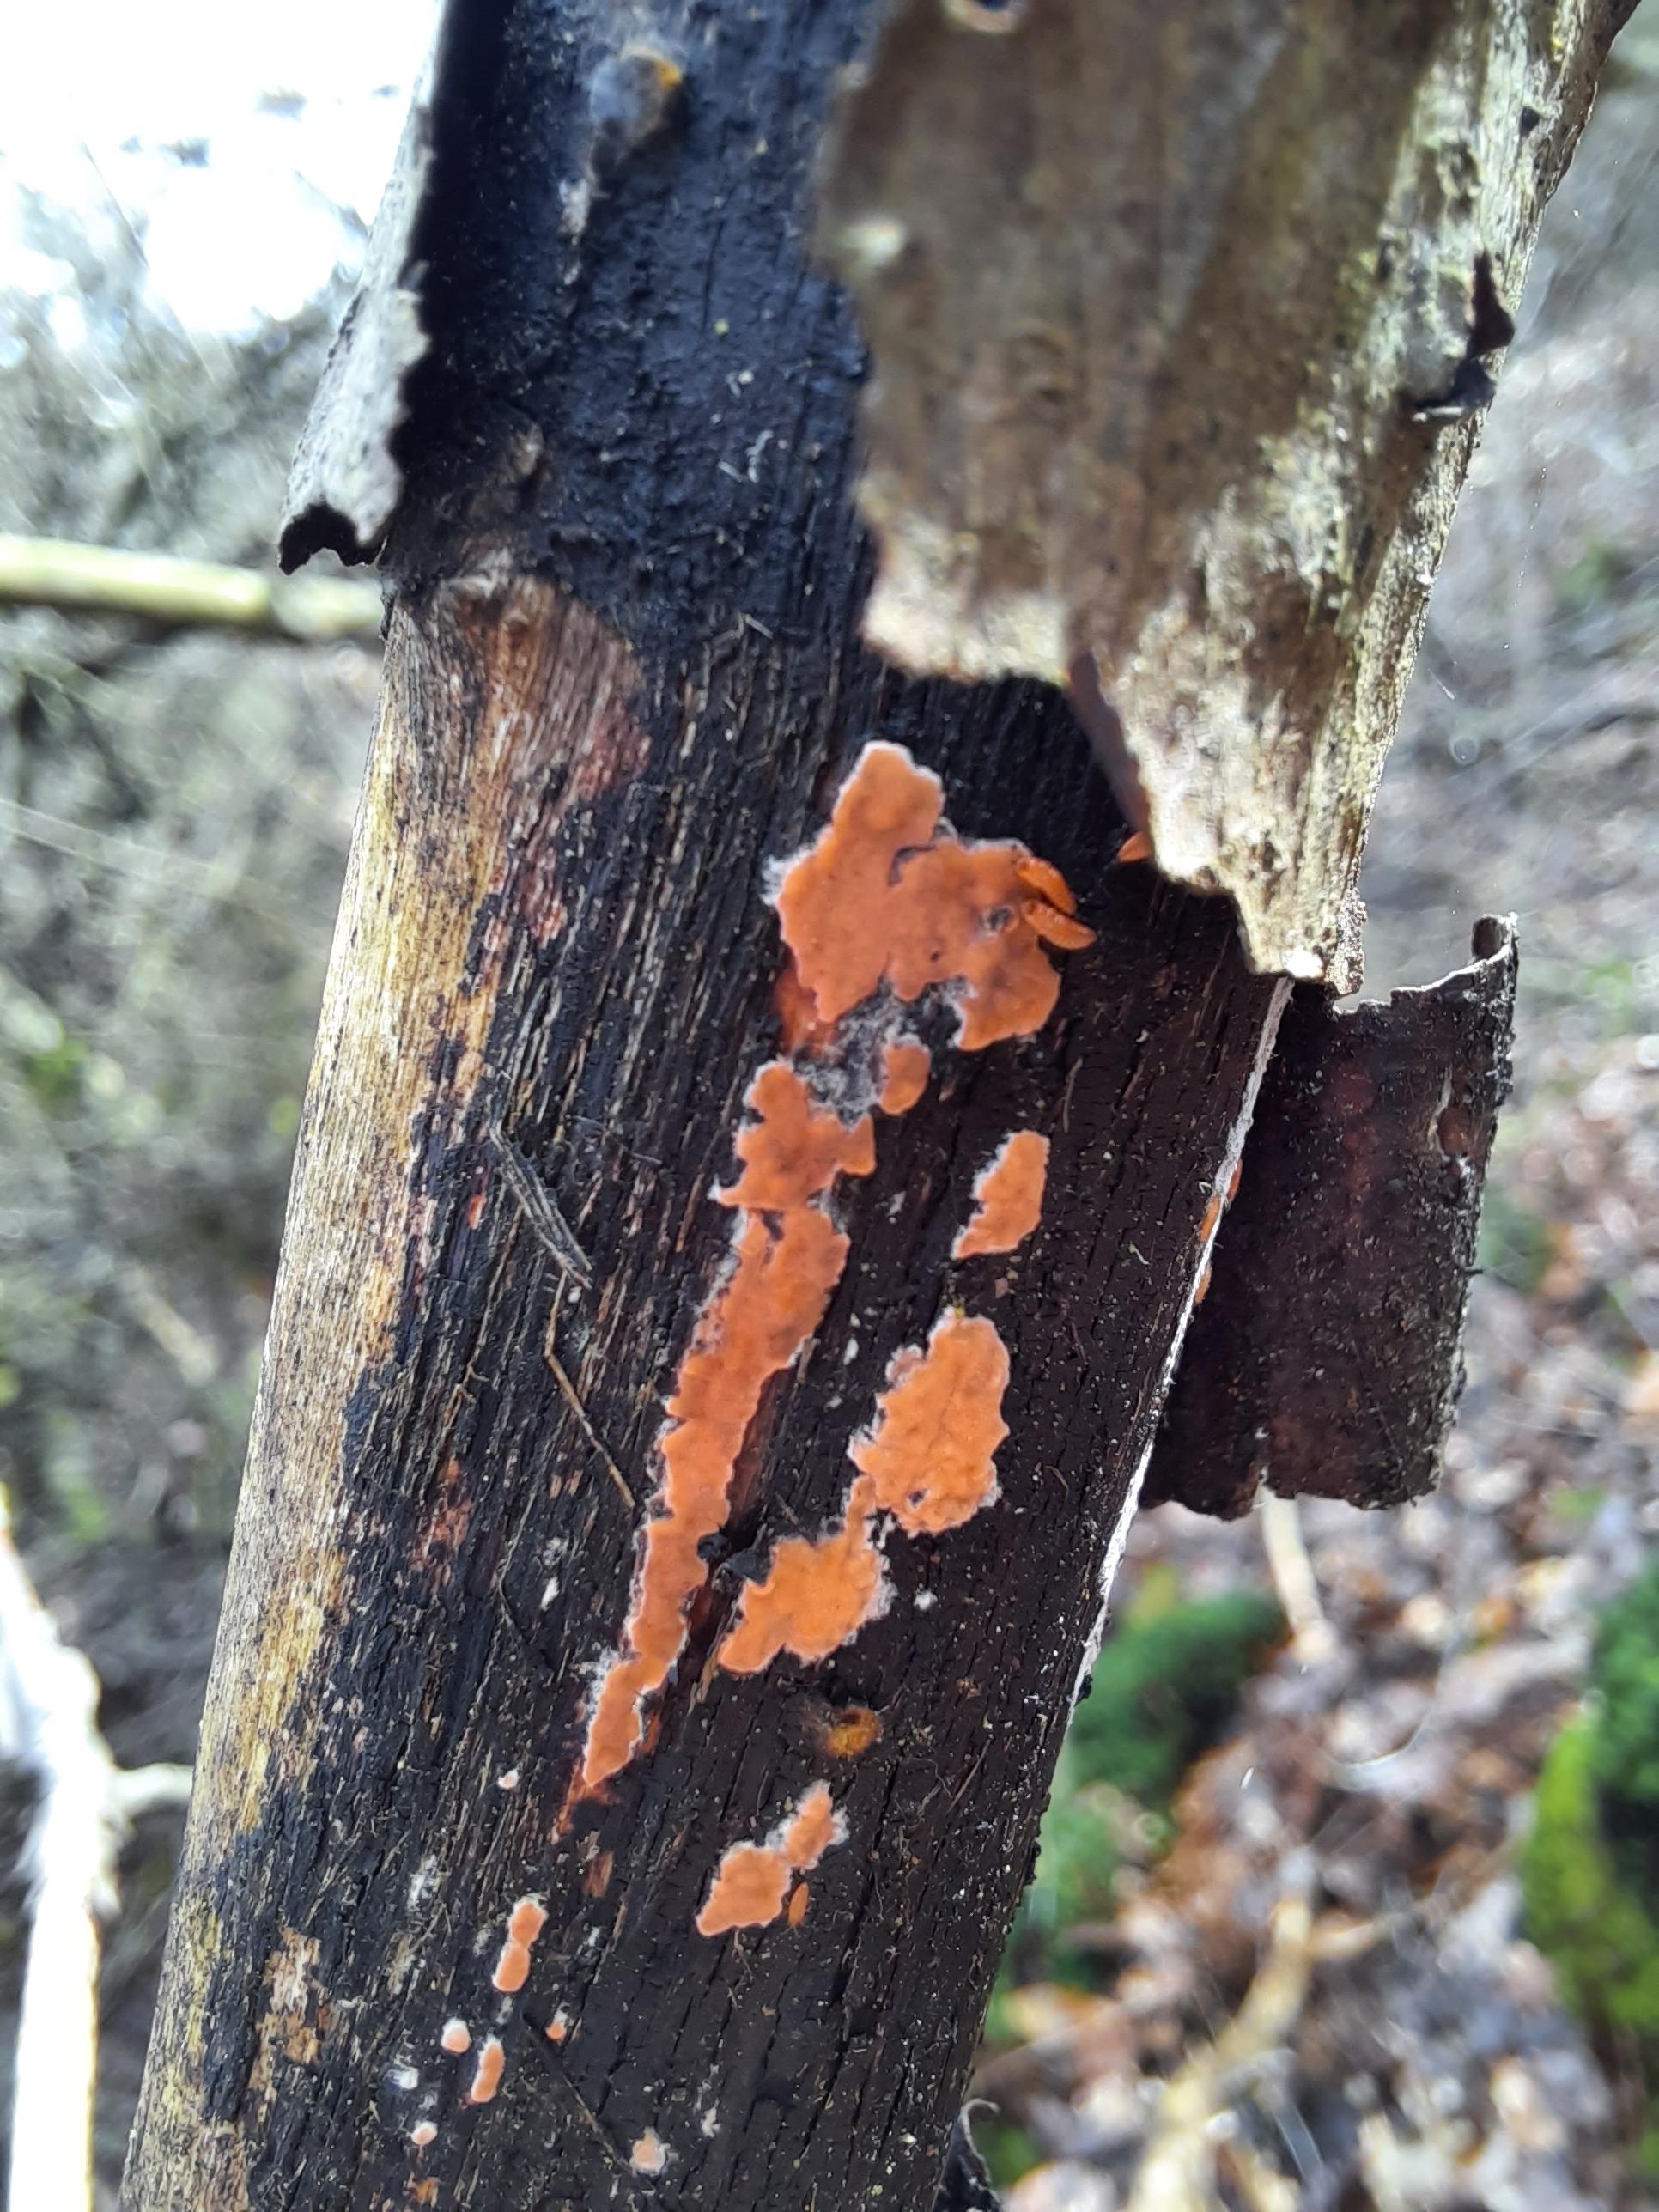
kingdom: Fungi
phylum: Basidiomycota
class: Agaricomycetes
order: Russulales
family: Peniophoraceae
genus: Peniophora
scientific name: Peniophora incarnata
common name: laksefarvet voksskind
